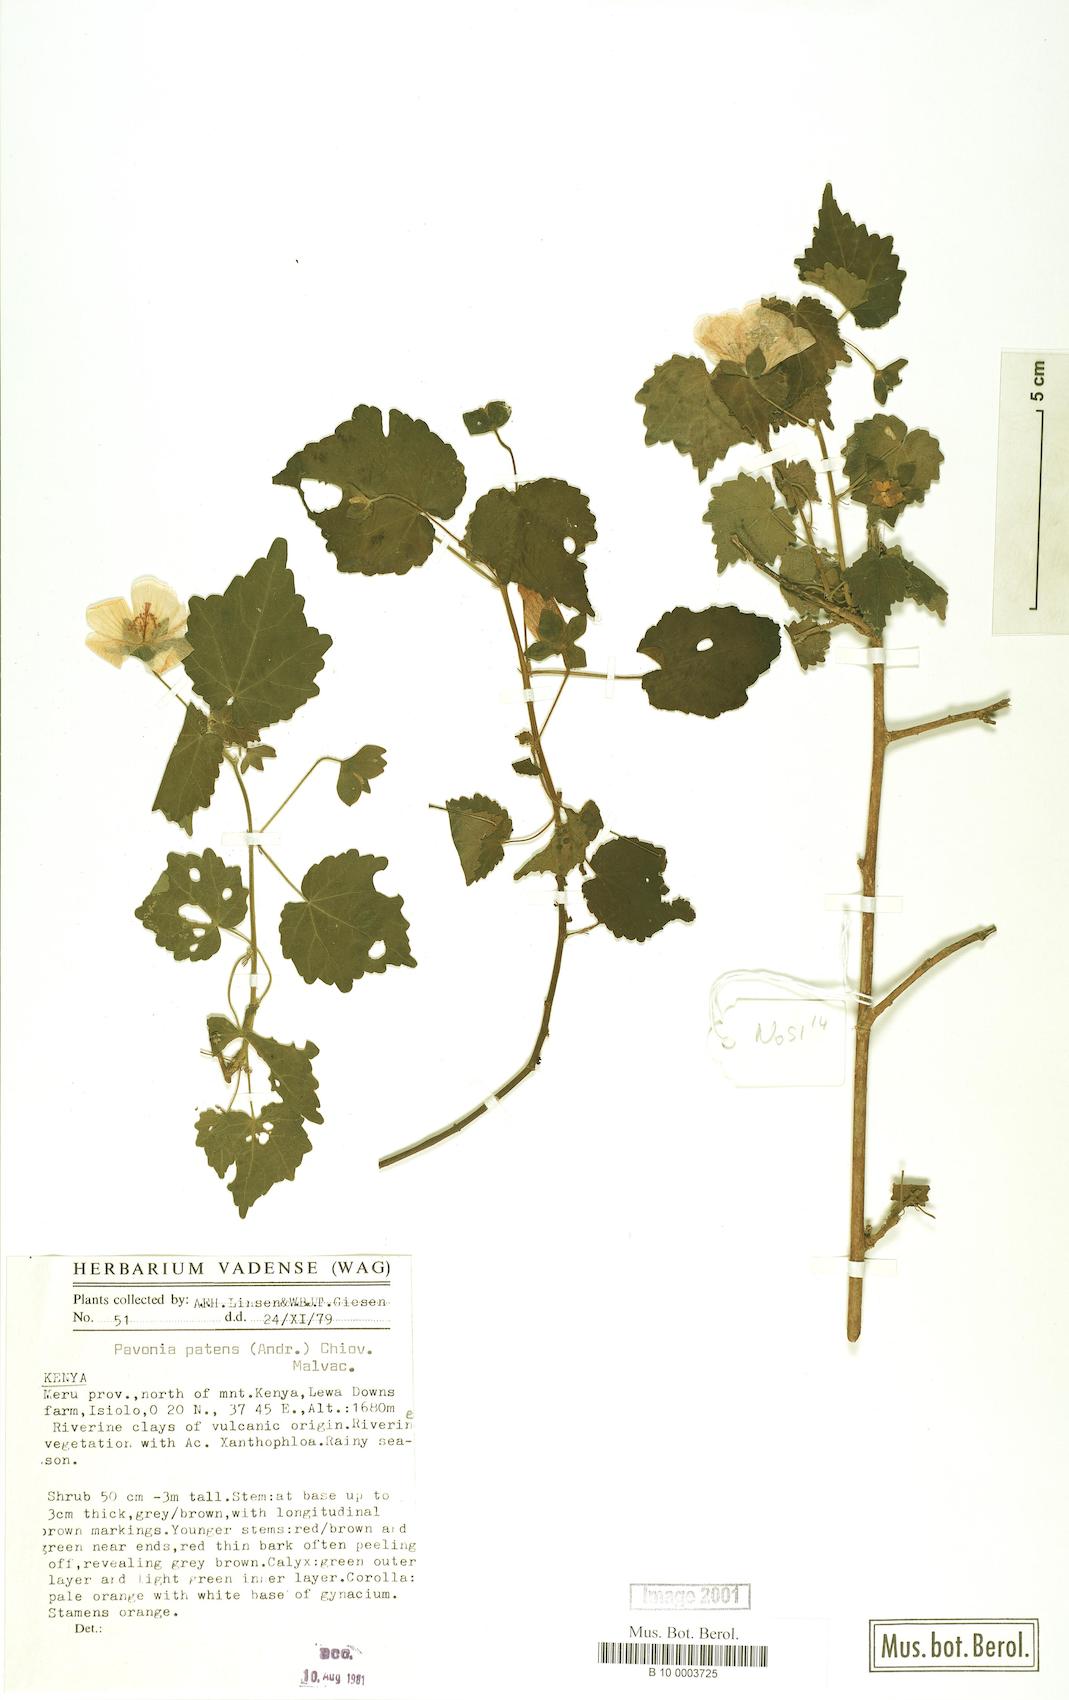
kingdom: Plantae
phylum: Tracheophyta
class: Magnoliopsida
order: Malvales
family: Malvaceae
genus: Abutilon
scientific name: Abutilon mauritianum
